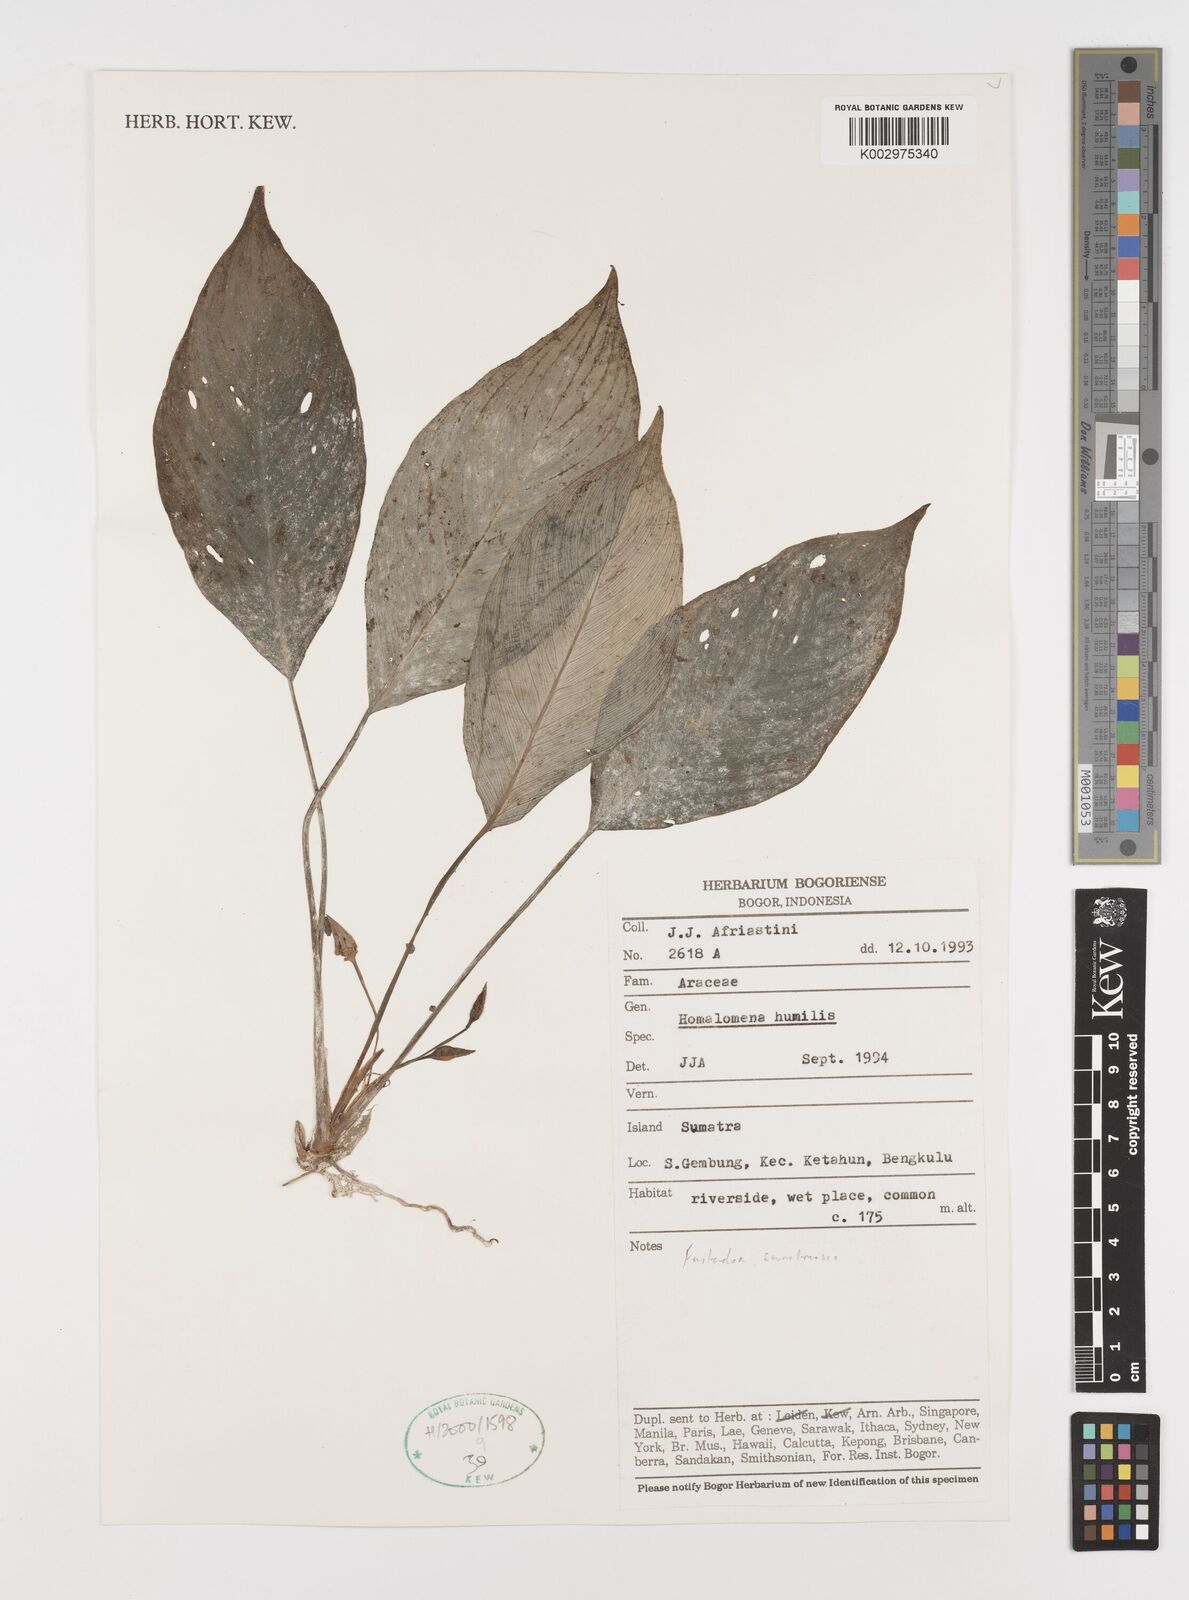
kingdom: Plantae
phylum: Tracheophyta
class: Liliopsida
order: Alismatales
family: Araceae
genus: Homalomena
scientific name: Homalomena humilis
